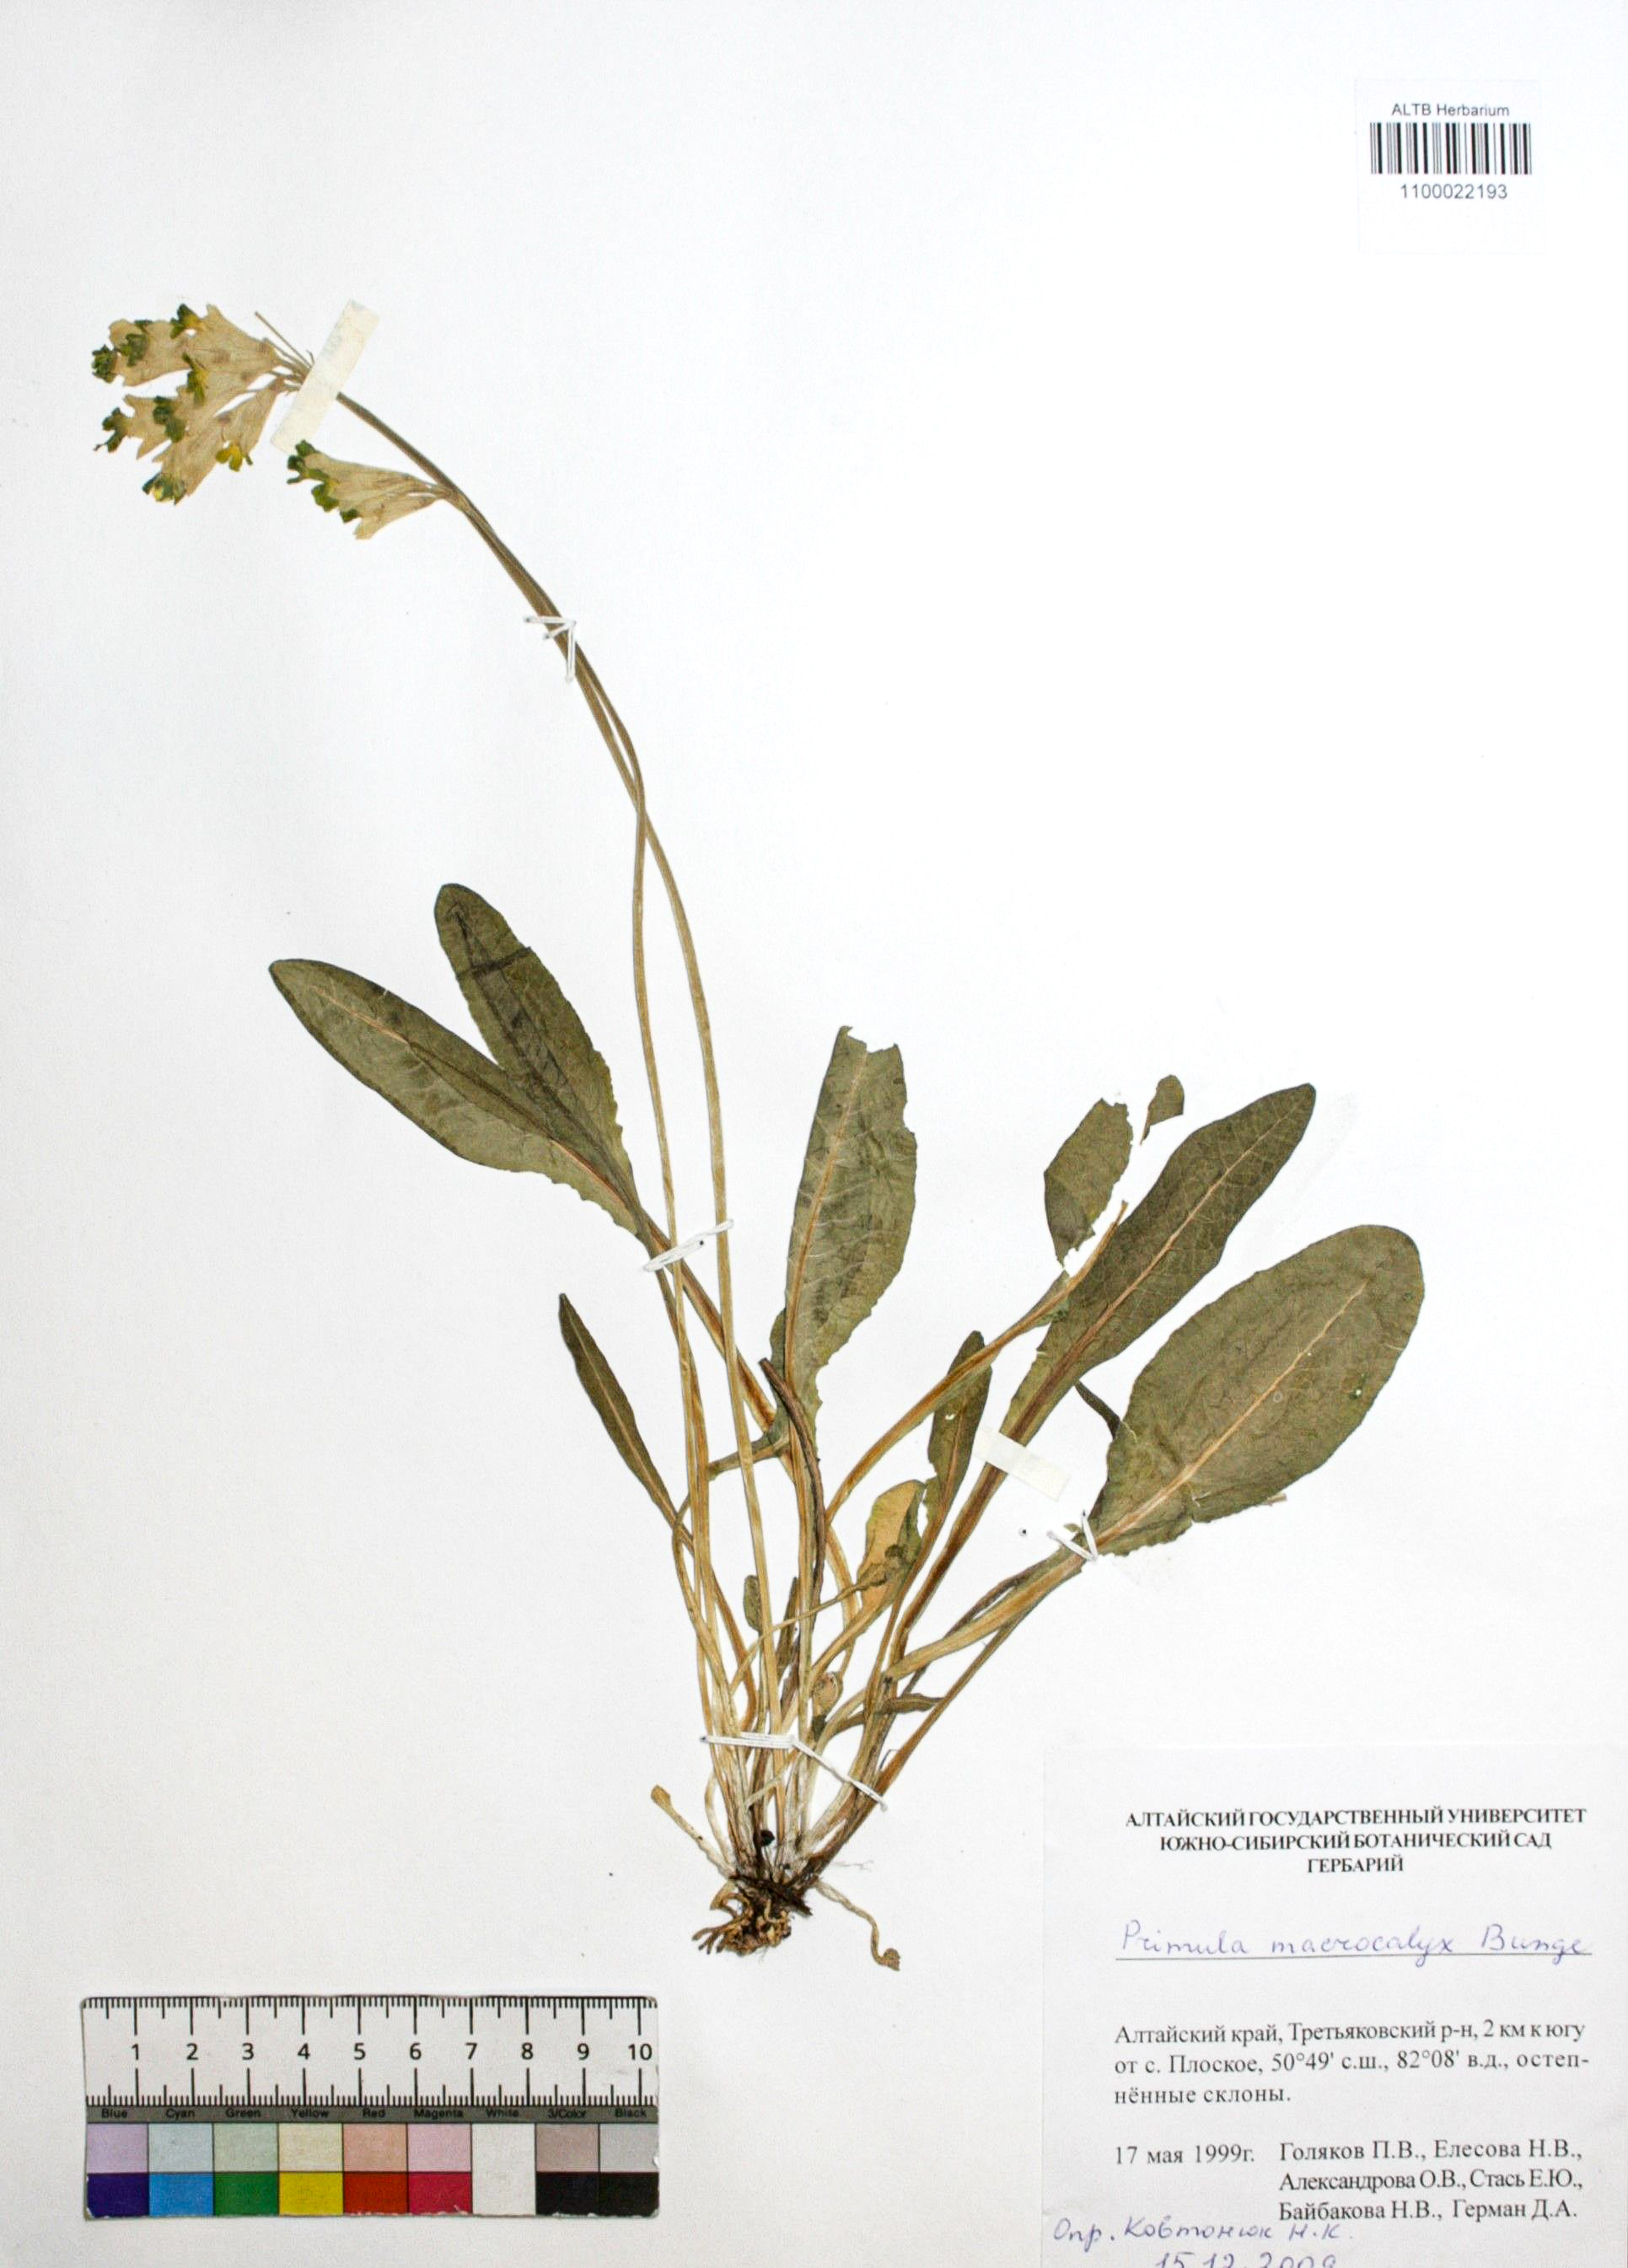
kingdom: Plantae
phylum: Tracheophyta
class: Magnoliopsida
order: Ericales
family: Primulaceae
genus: Primula
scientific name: Primula veris
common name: Cowslip
